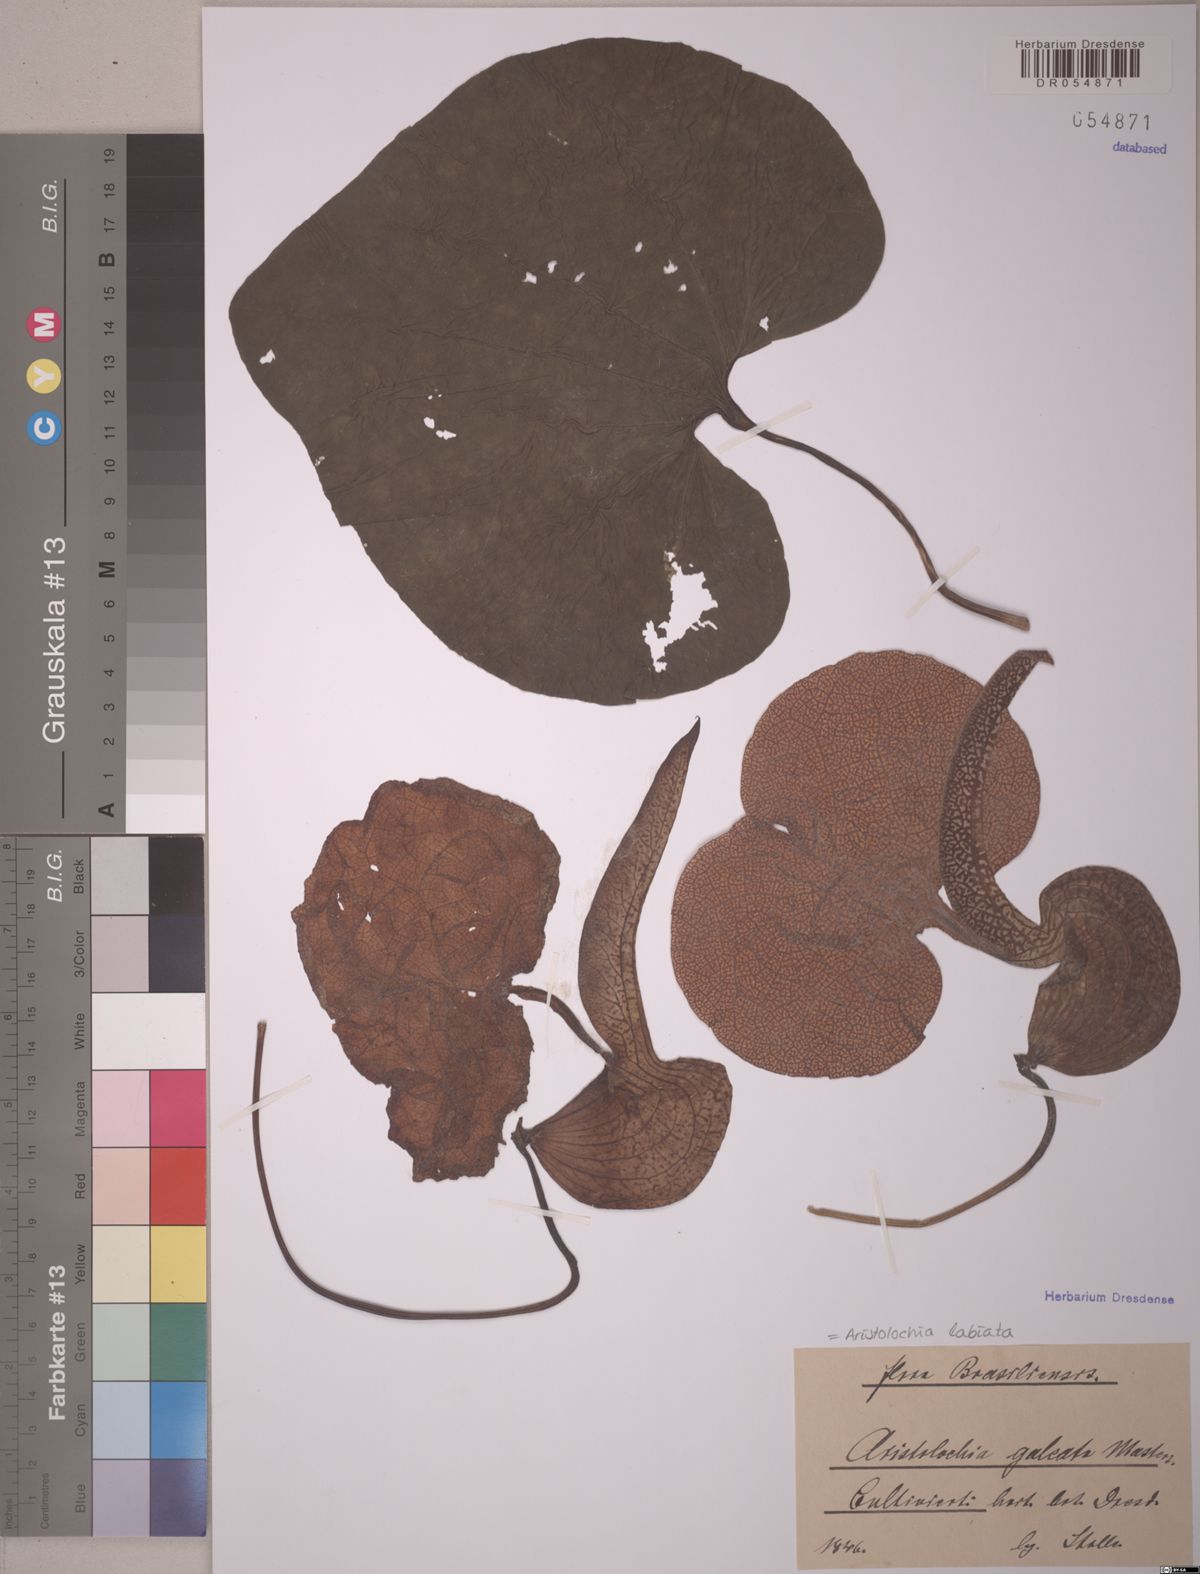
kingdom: Plantae
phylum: Tracheophyta
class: Magnoliopsida
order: Piperales
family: Aristolochiaceae
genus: Aristolochia
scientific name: Aristolochia labiata
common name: Mottled dutchman's pipe
